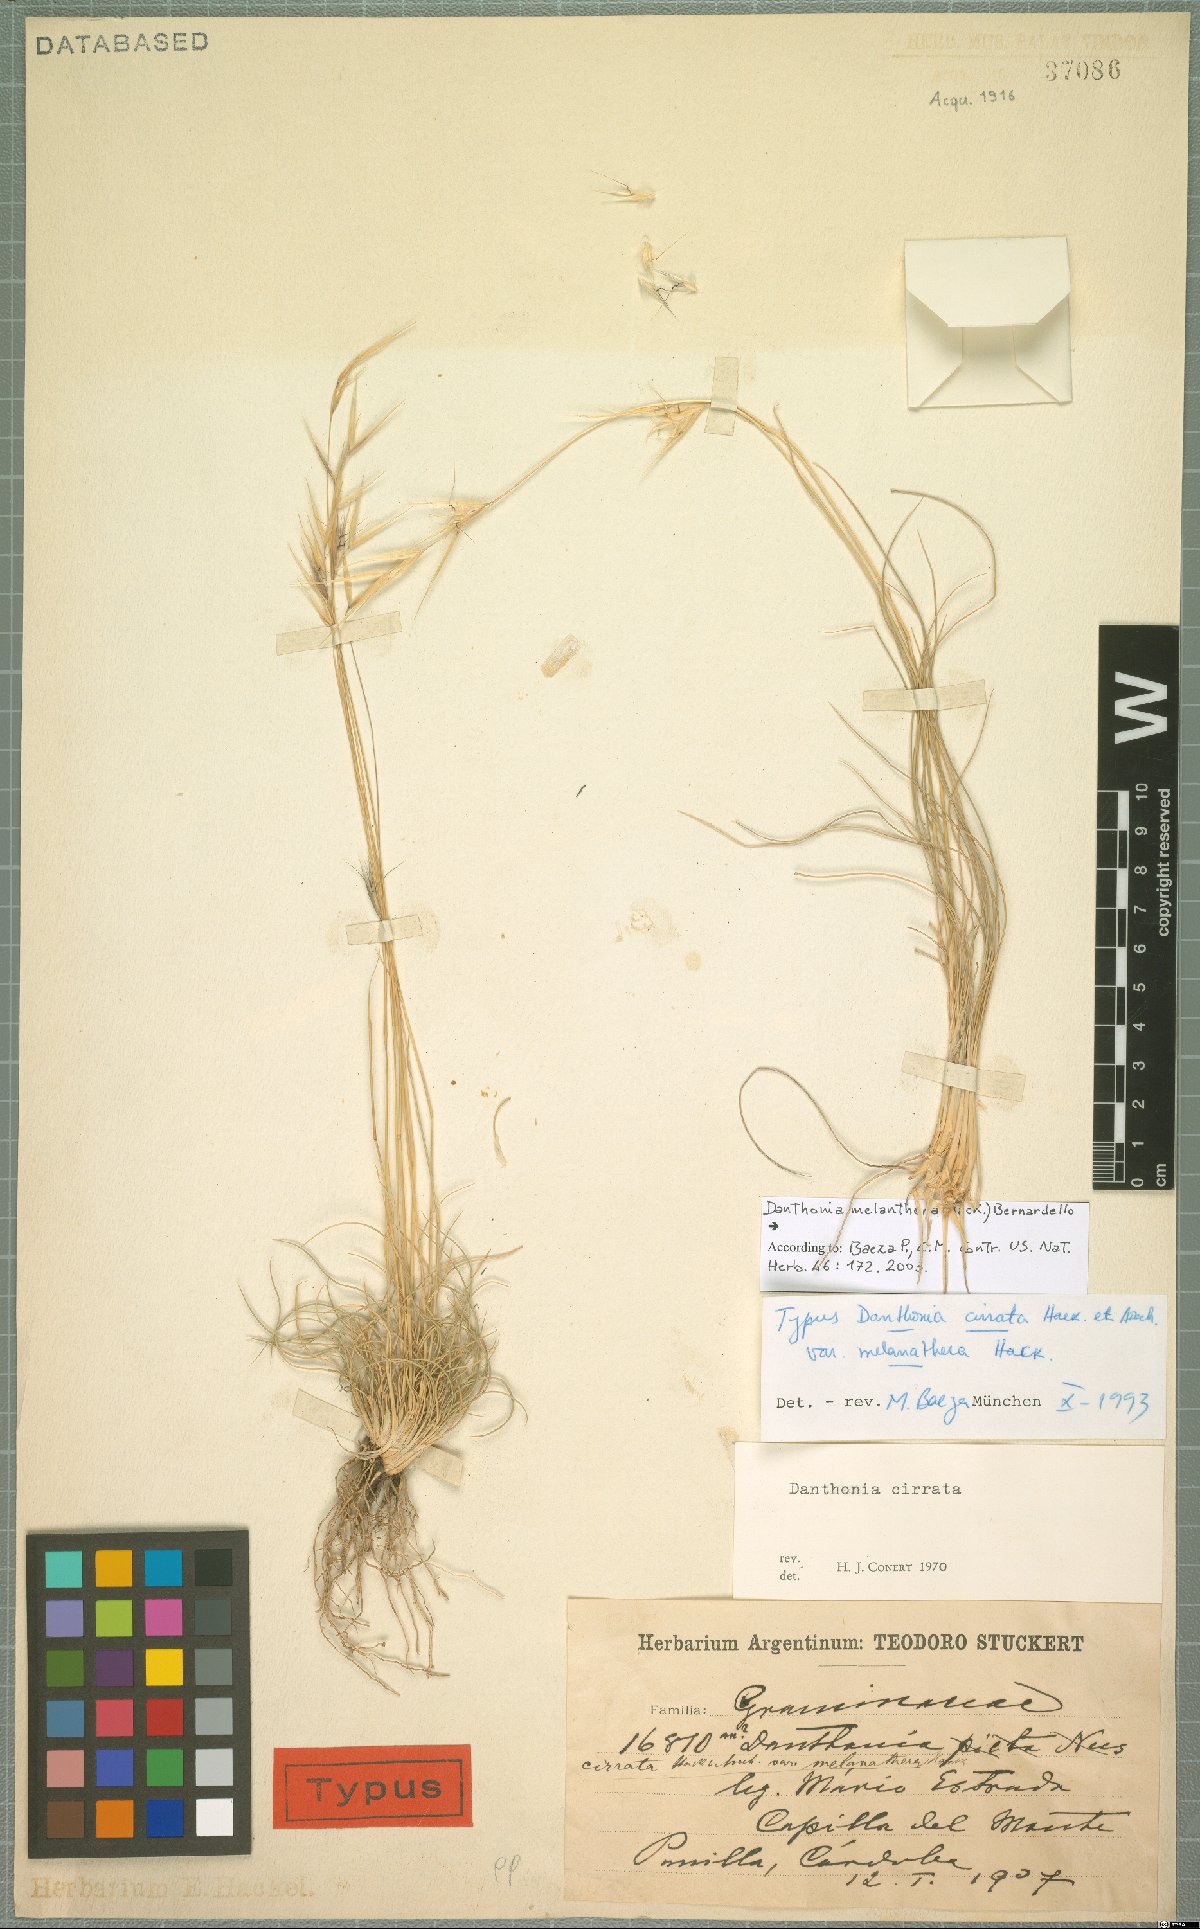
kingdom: Plantae
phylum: Tracheophyta
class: Liliopsida
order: Poales
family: Poaceae
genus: Danthonia
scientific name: Danthonia melanathera
